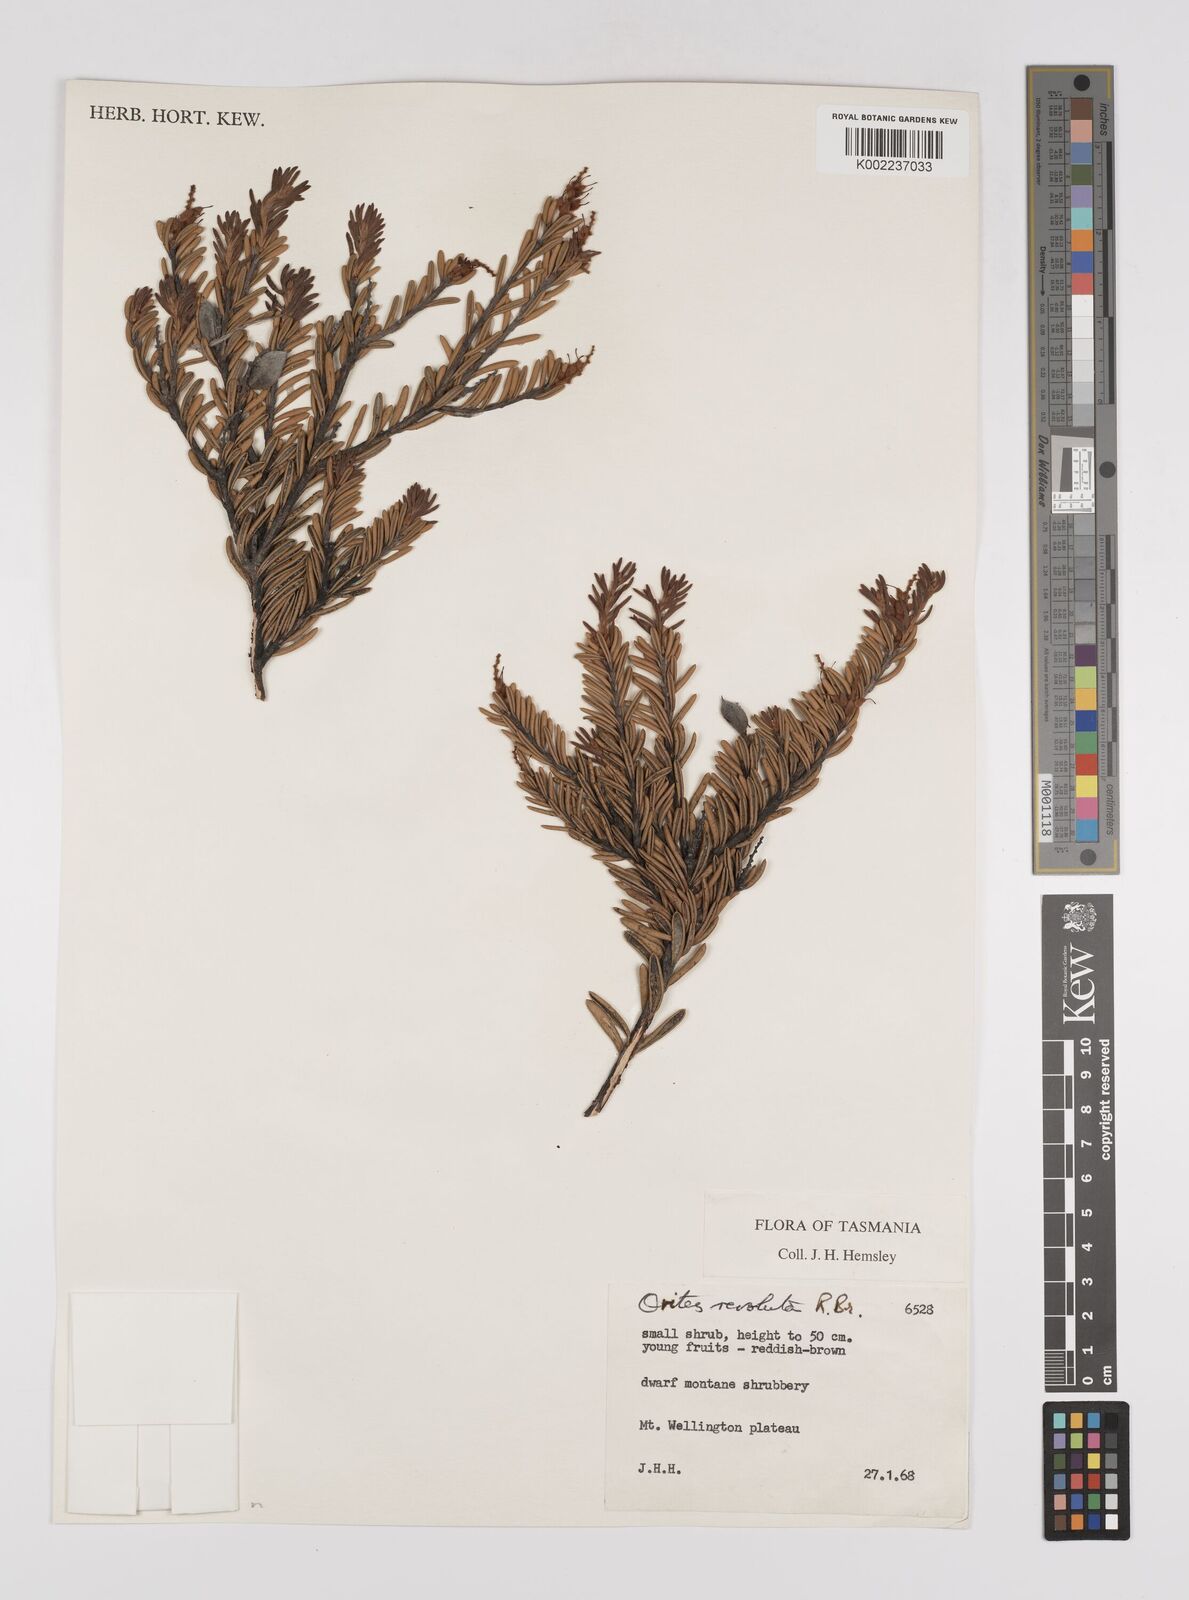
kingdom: Plantae
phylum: Tracheophyta
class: Magnoliopsida
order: Proteales
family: Proteaceae
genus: Orites
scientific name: Orites revolutus
